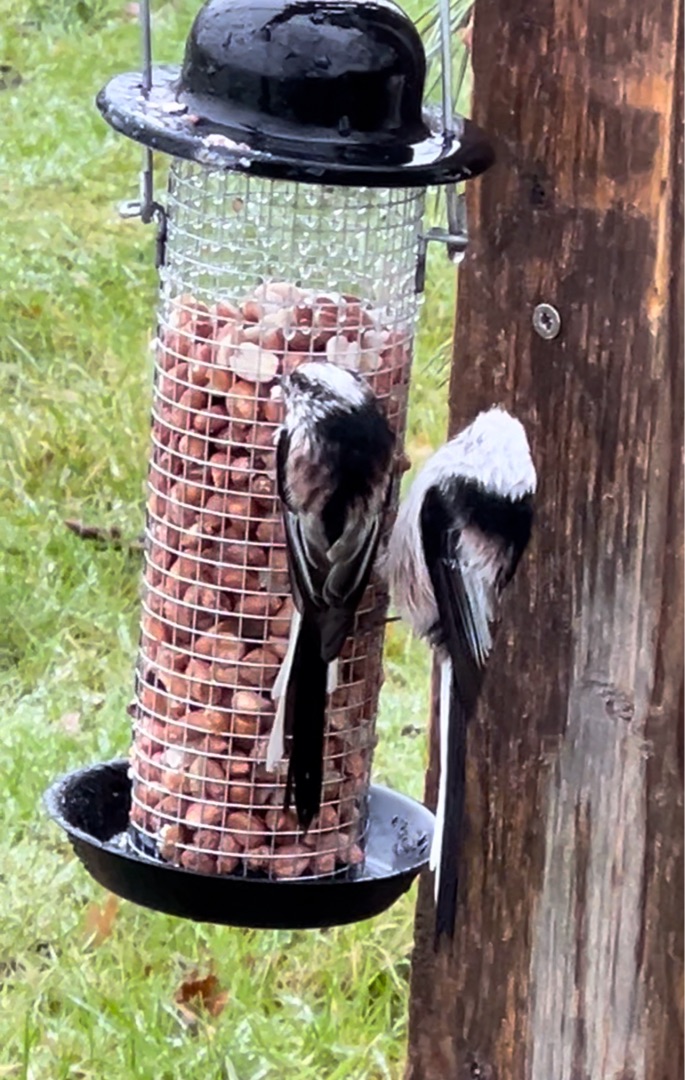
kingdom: Animalia
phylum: Chordata
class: Aves
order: Passeriformes
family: Aegithalidae
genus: Aegithalos
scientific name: Aegithalos caudatus
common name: Halemejse
